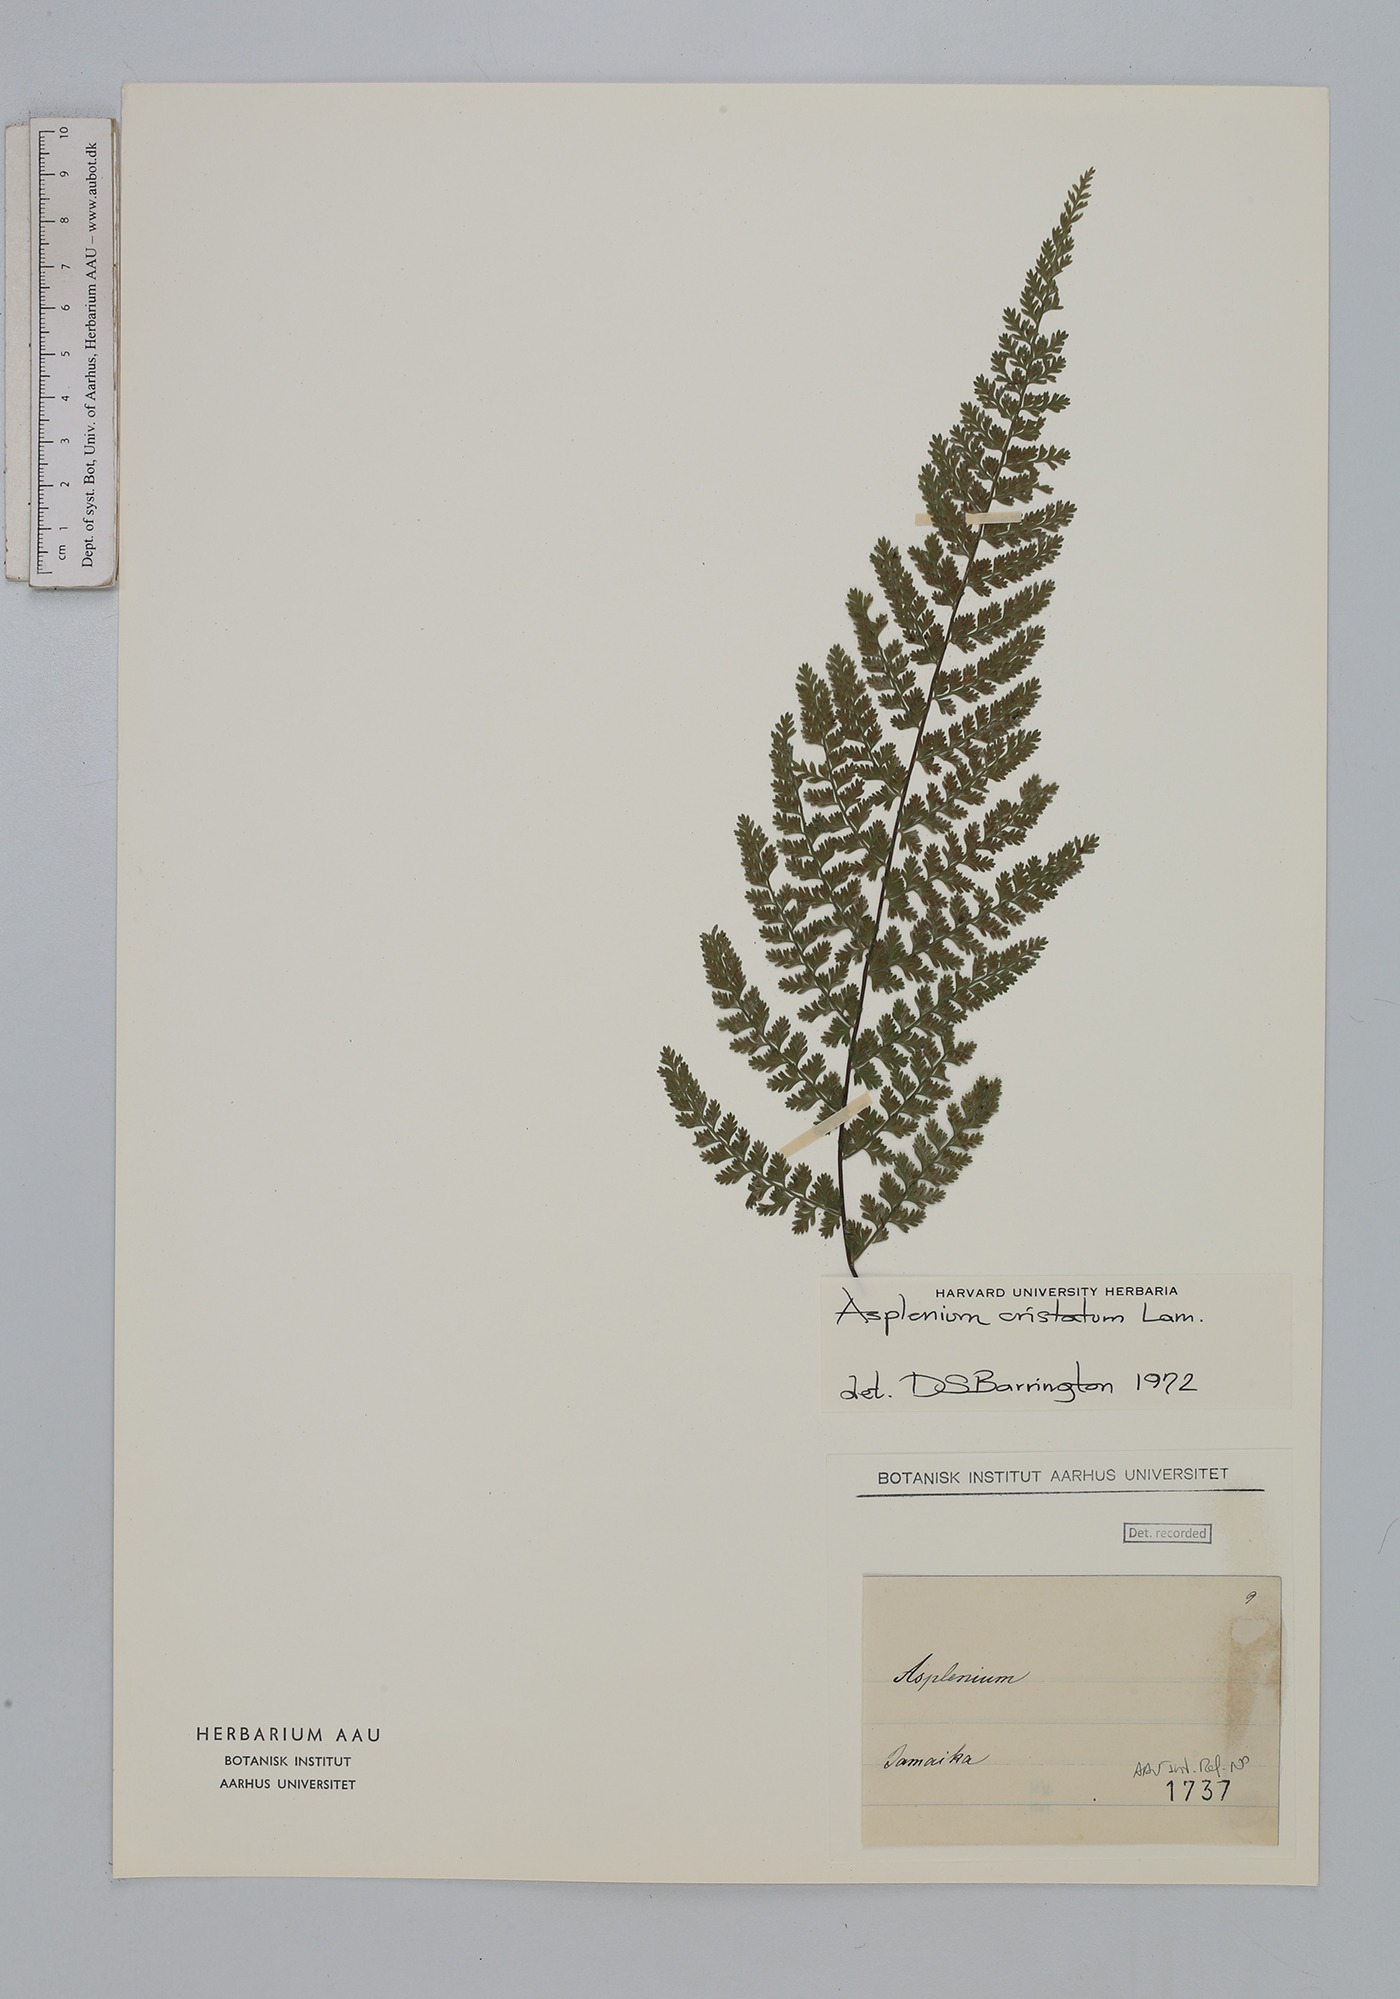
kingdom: Plantae
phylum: Tracheophyta
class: Polypodiopsida
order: Polypodiales
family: Aspleniaceae
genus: Asplenium
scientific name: Asplenium cristatum
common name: Parsley spleenwort
